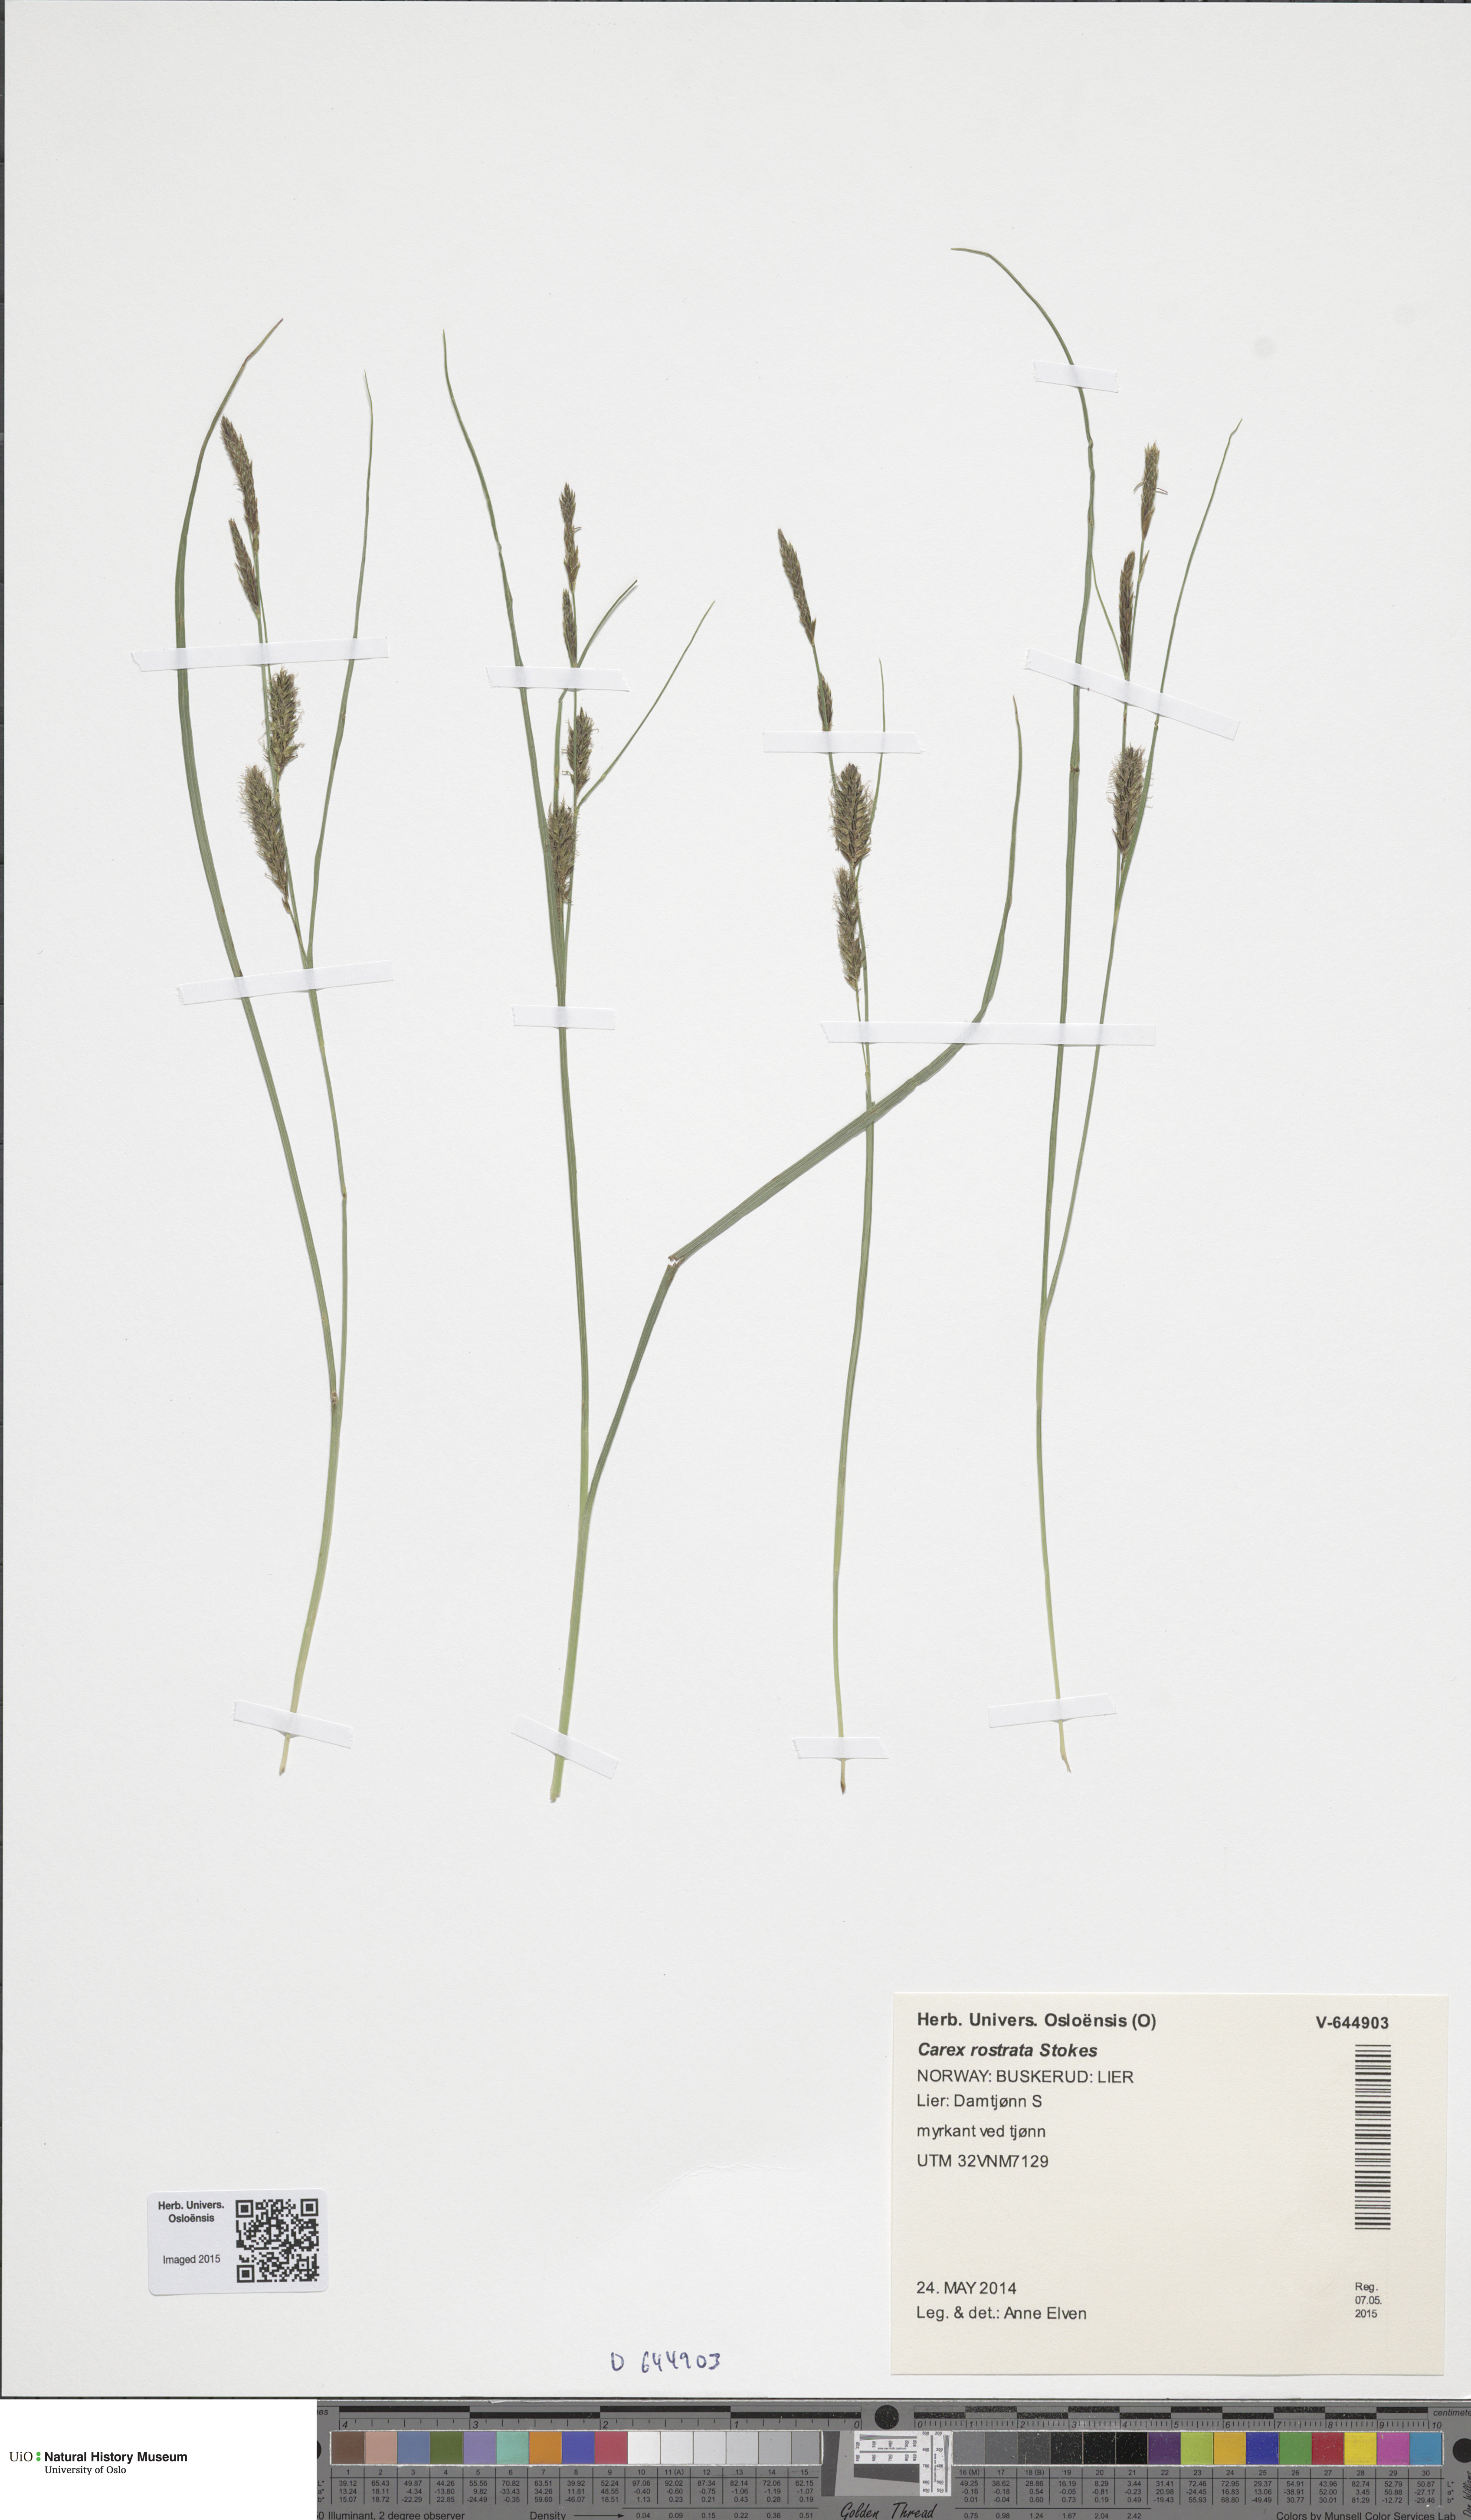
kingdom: Plantae
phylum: Tracheophyta
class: Liliopsida
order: Poales
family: Cyperaceae
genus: Carex
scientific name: Carex rostrata
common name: Bottle sedge
